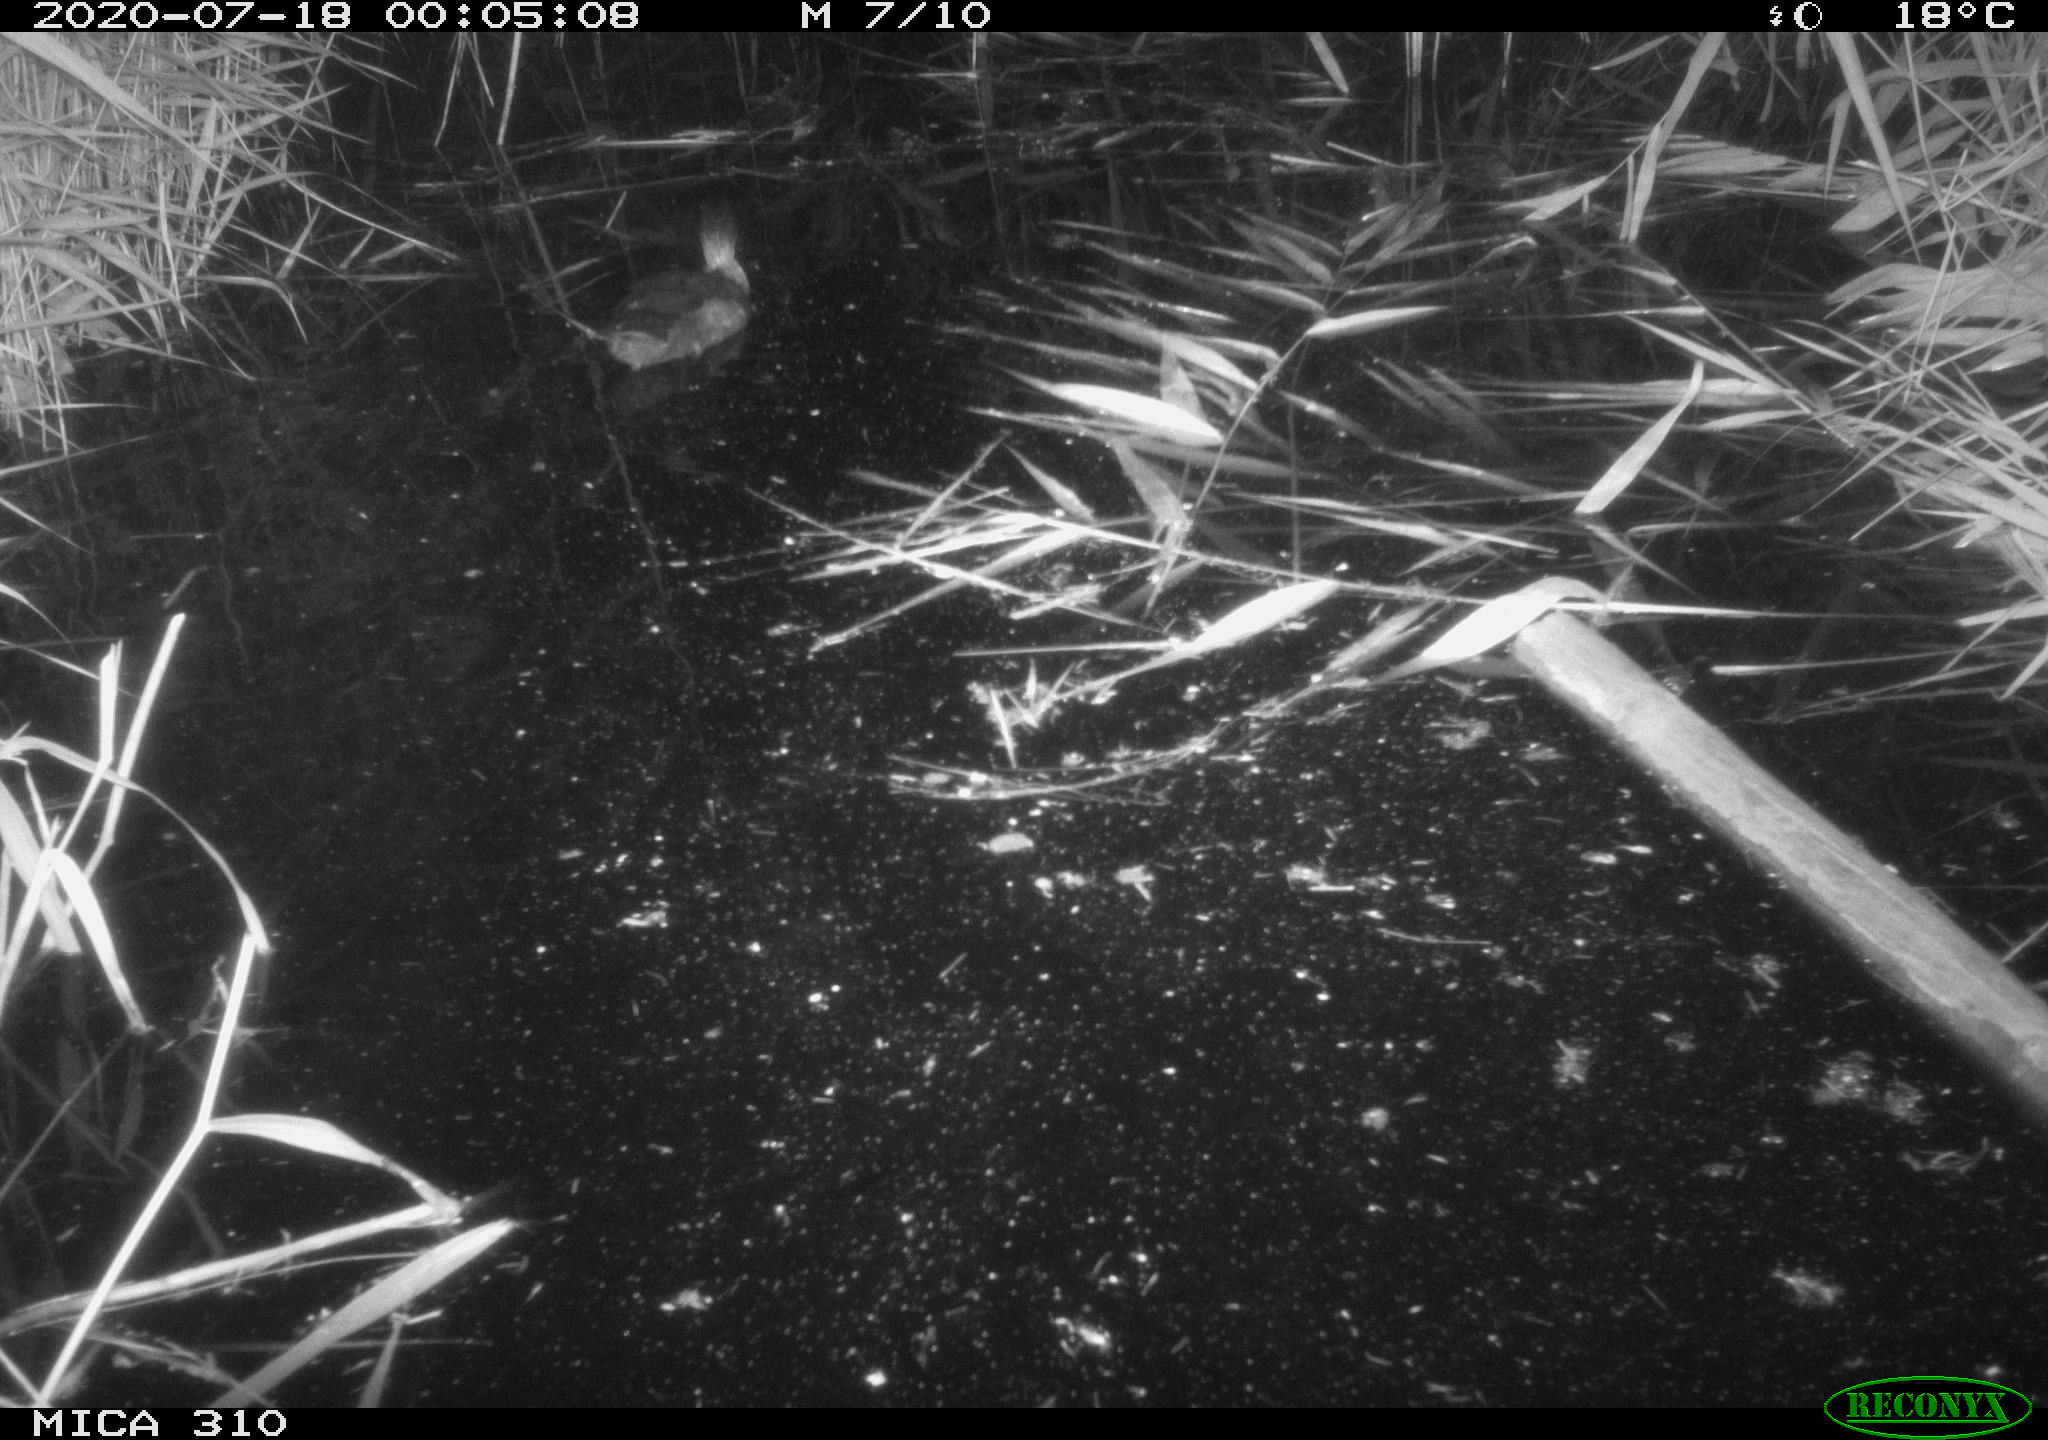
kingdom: Animalia
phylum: Chordata
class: Aves
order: Gruiformes
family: Rallidae
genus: Gallinula
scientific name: Gallinula chloropus
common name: Common moorhen
